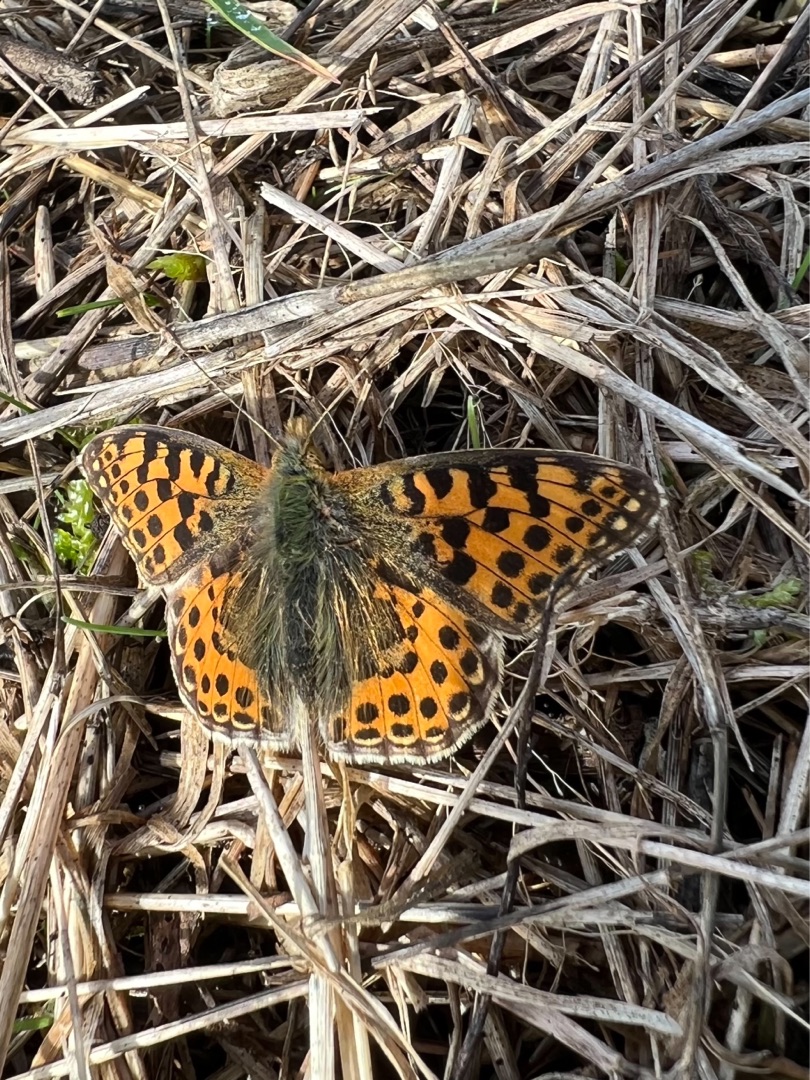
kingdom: Animalia
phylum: Arthropoda
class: Insecta
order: Lepidoptera
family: Nymphalidae
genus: Issoria
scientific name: Issoria lathonia
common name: Storplettet perlemorsommerfugl
